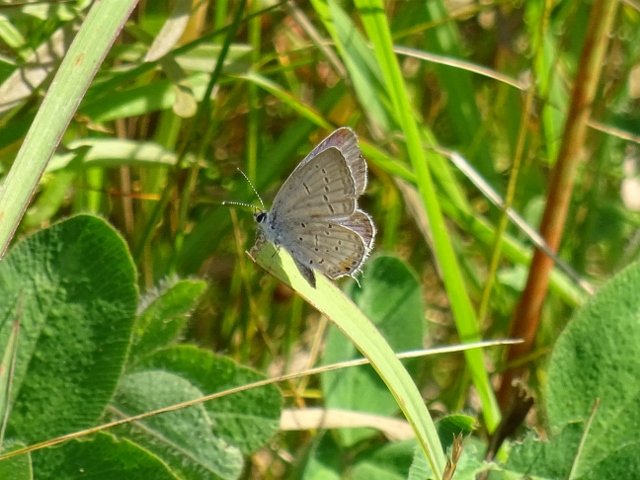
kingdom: Animalia
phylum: Arthropoda
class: Insecta
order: Lepidoptera
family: Lycaenidae
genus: Elkalyce
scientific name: Elkalyce comyntas
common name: Eastern Tailed-Blue
